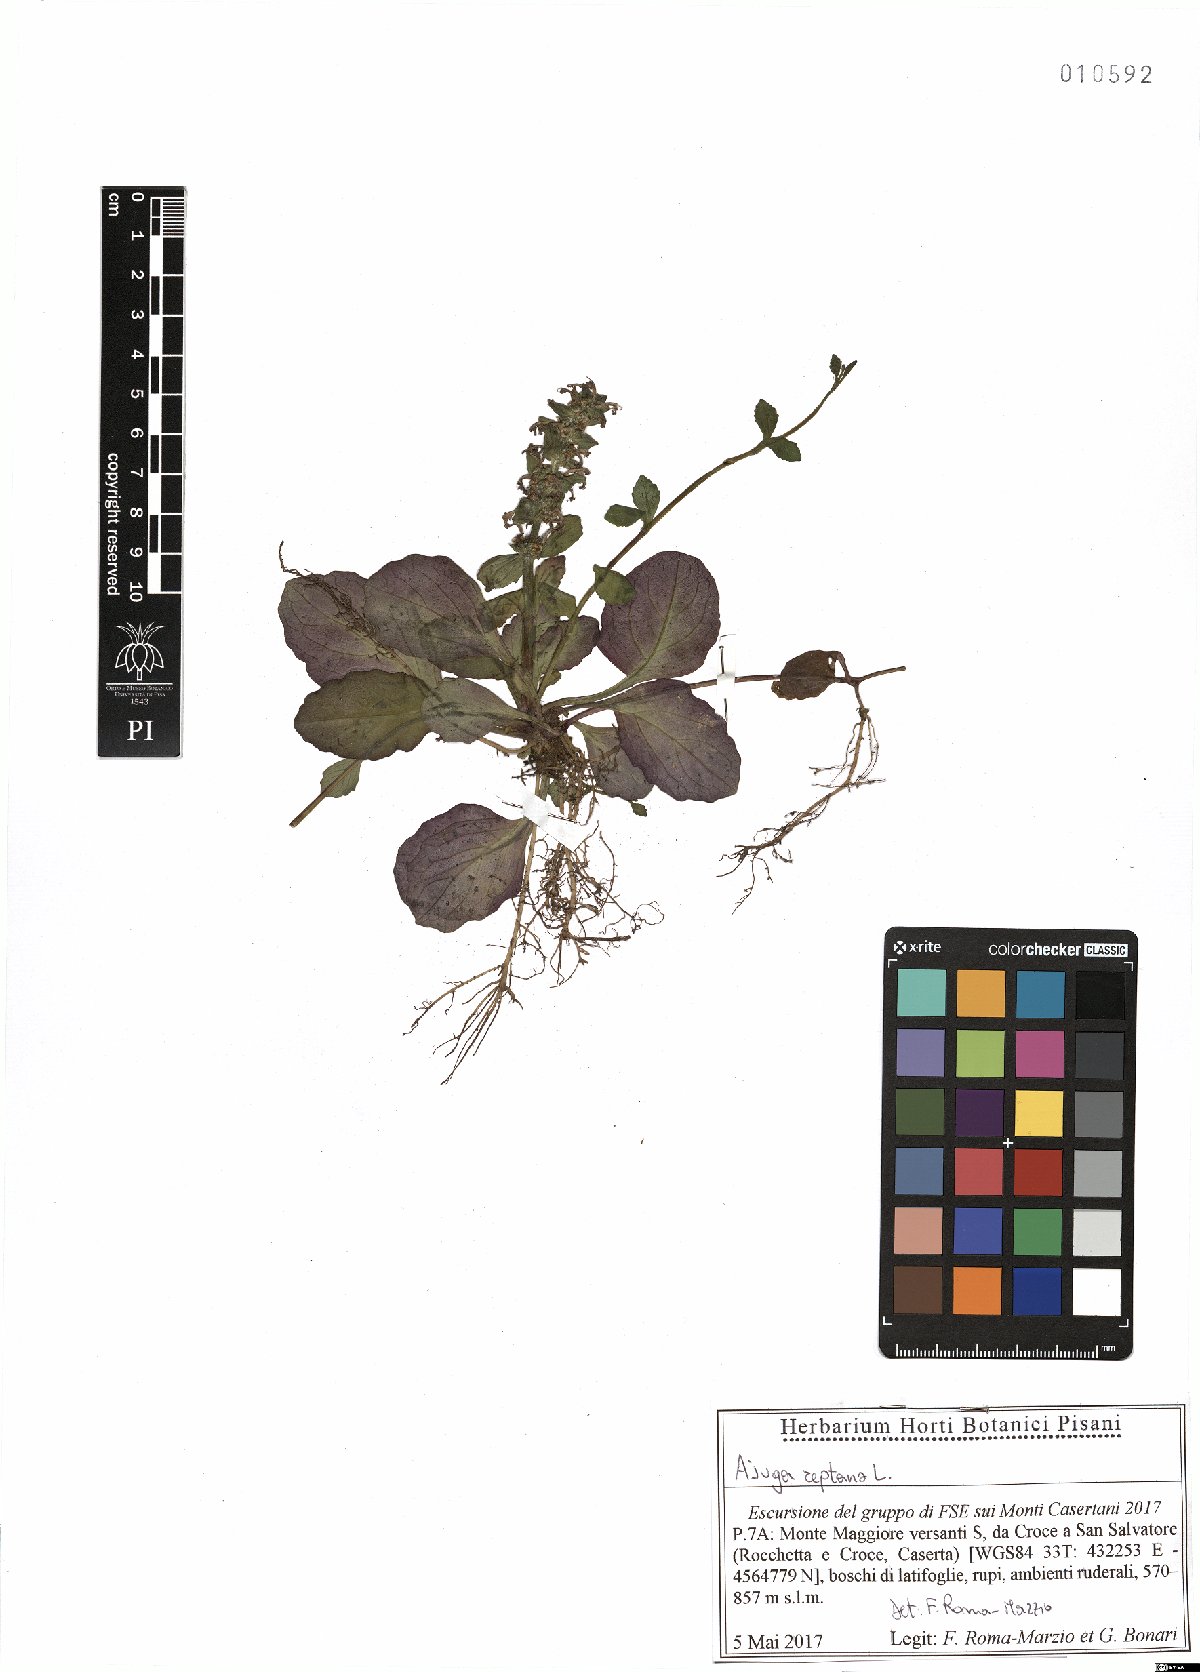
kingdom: Plantae
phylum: Tracheophyta
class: Magnoliopsida
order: Lamiales
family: Lamiaceae
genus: Ajuga
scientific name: Ajuga reptans
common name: Bugle
